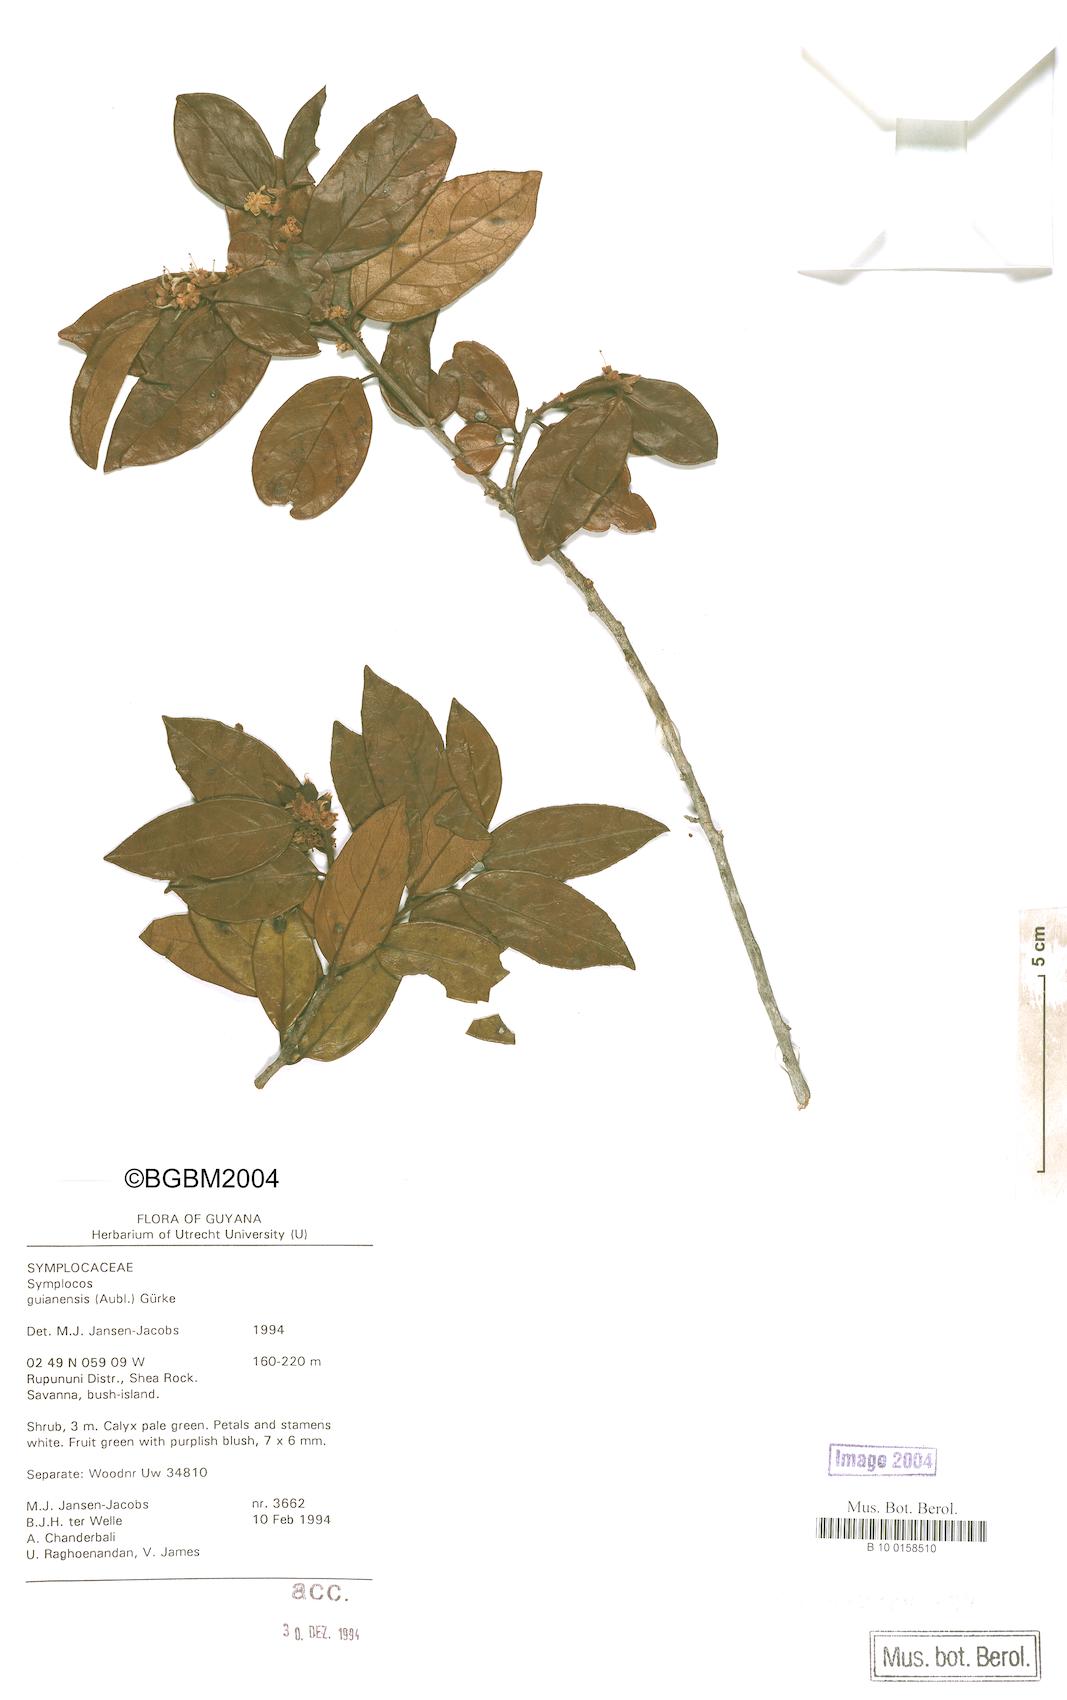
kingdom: Plantae
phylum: Tracheophyta
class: Magnoliopsida
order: Ericales
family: Symplocaceae
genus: Symplocos
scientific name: Symplocos guianensis
